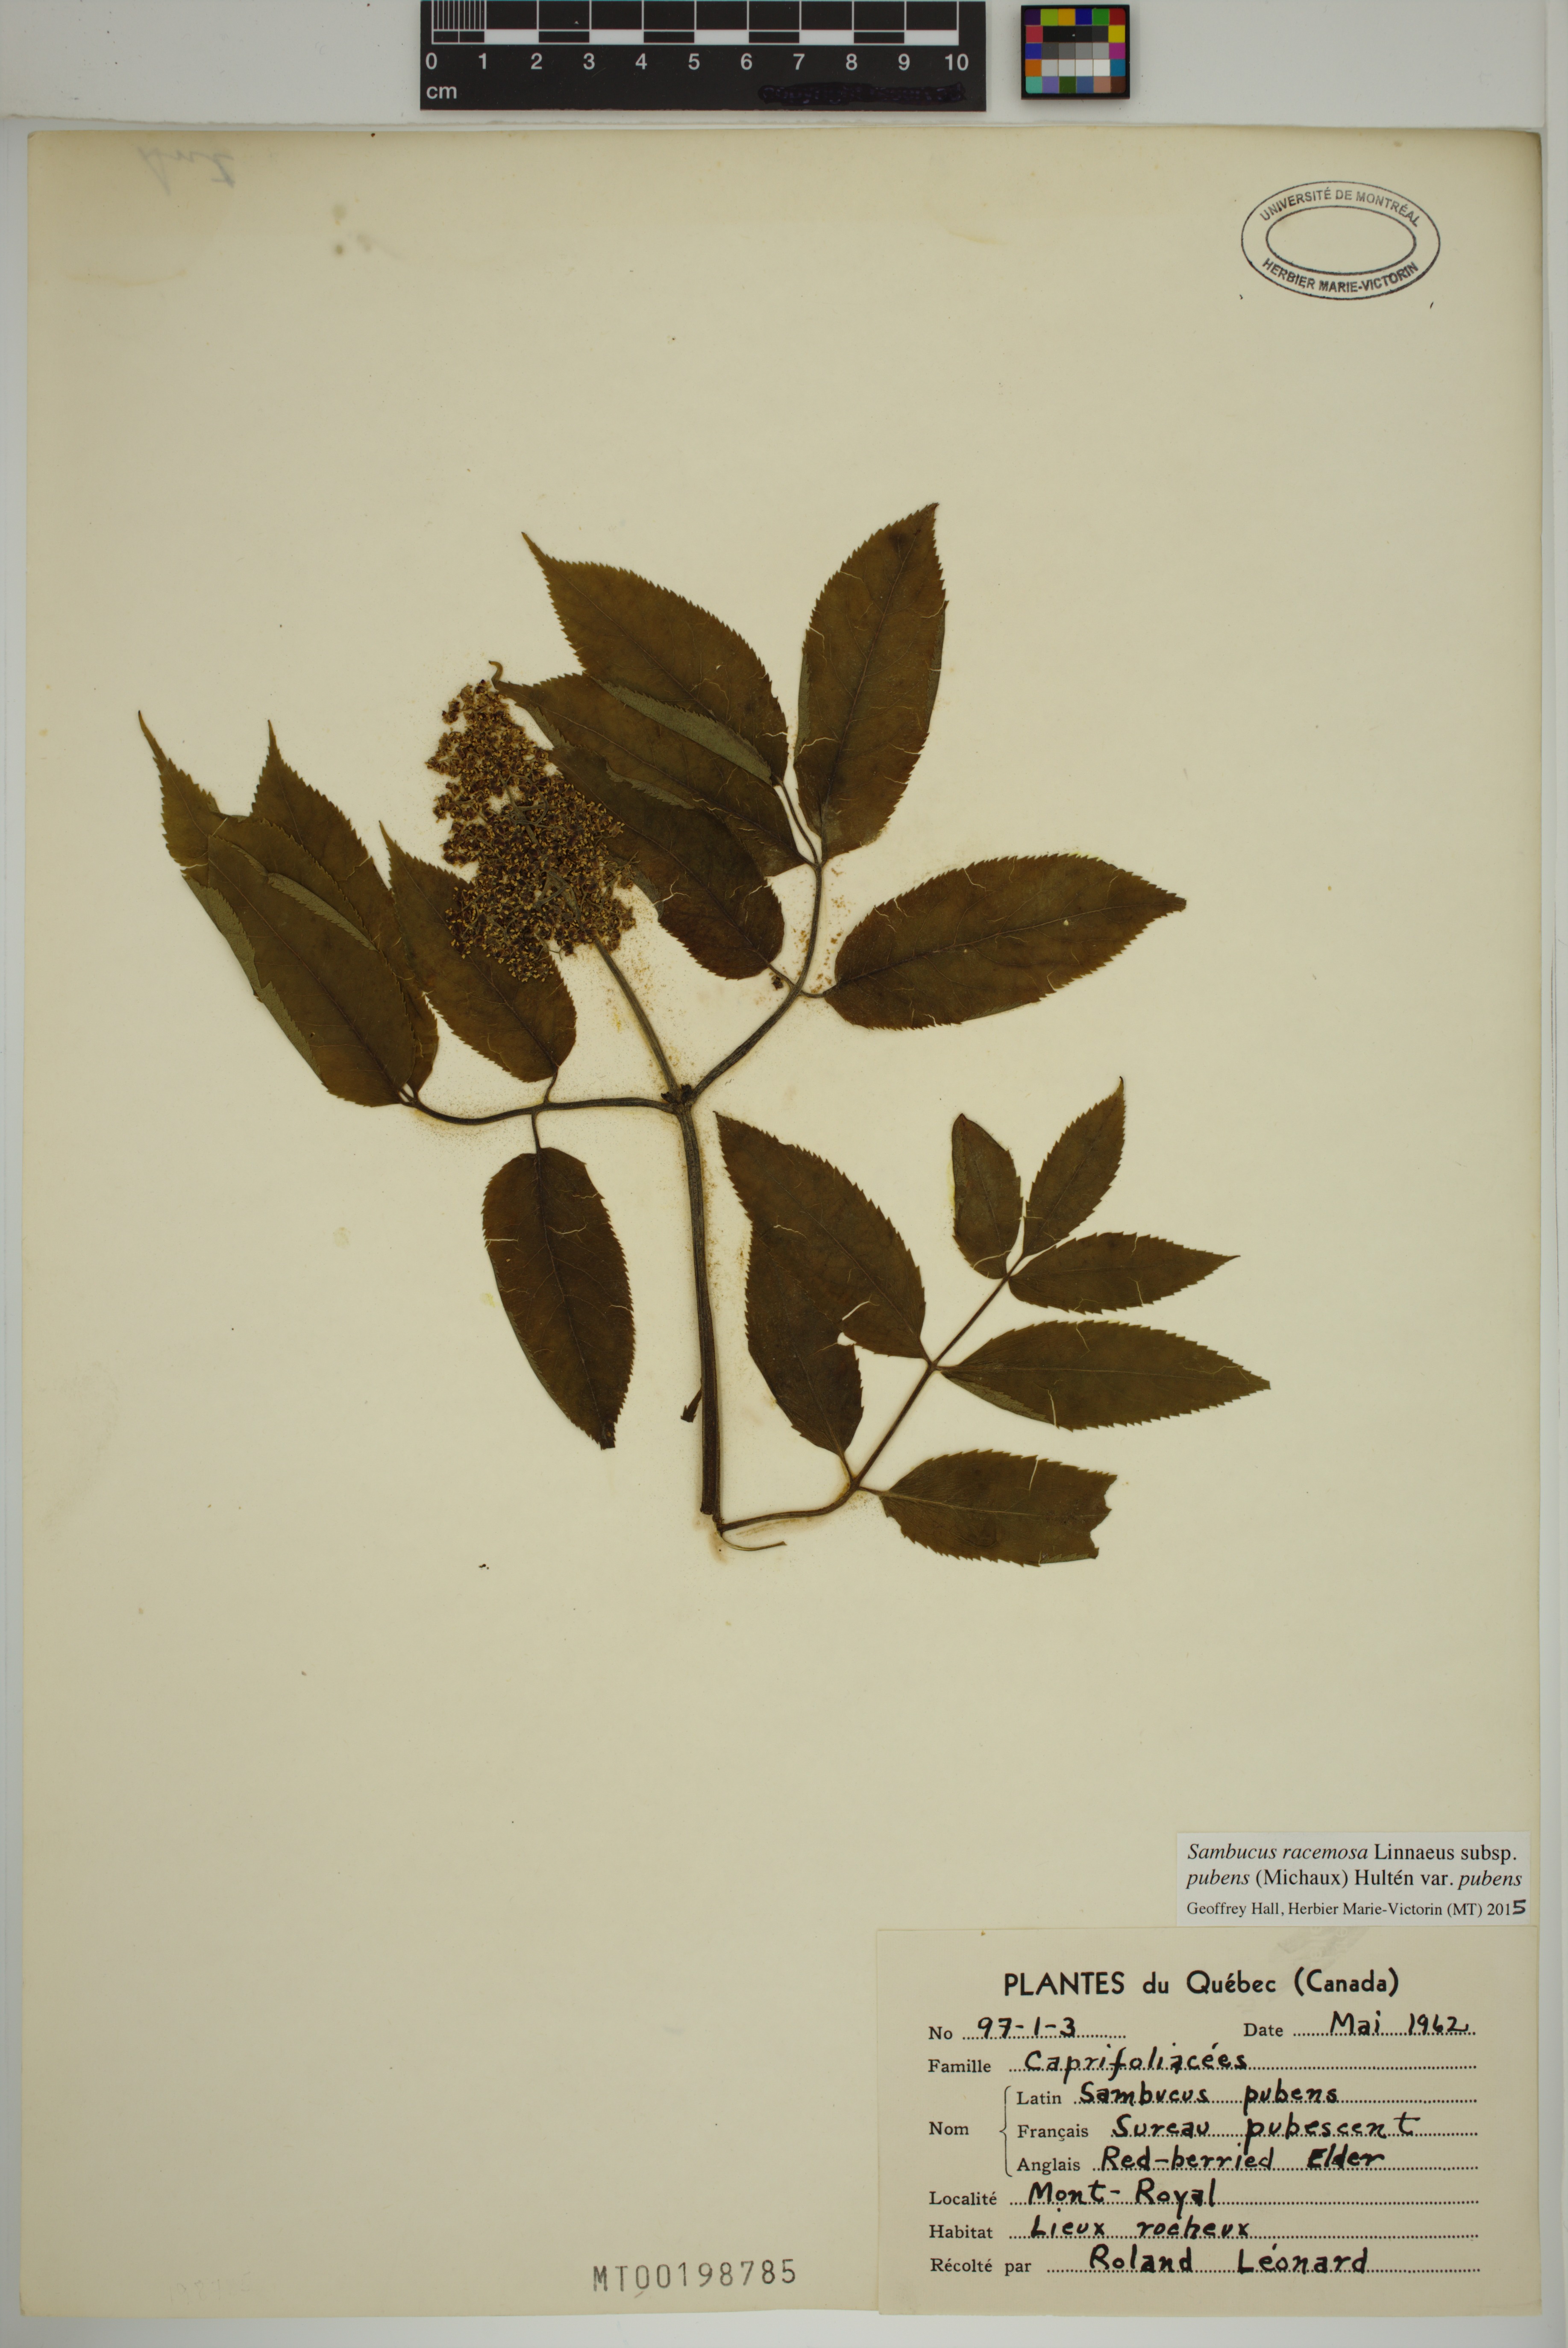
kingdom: Plantae
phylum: Tracheophyta
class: Magnoliopsida
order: Dipsacales
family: Viburnaceae
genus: Sambucus
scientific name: Sambucus racemosa
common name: Red-berried elder
